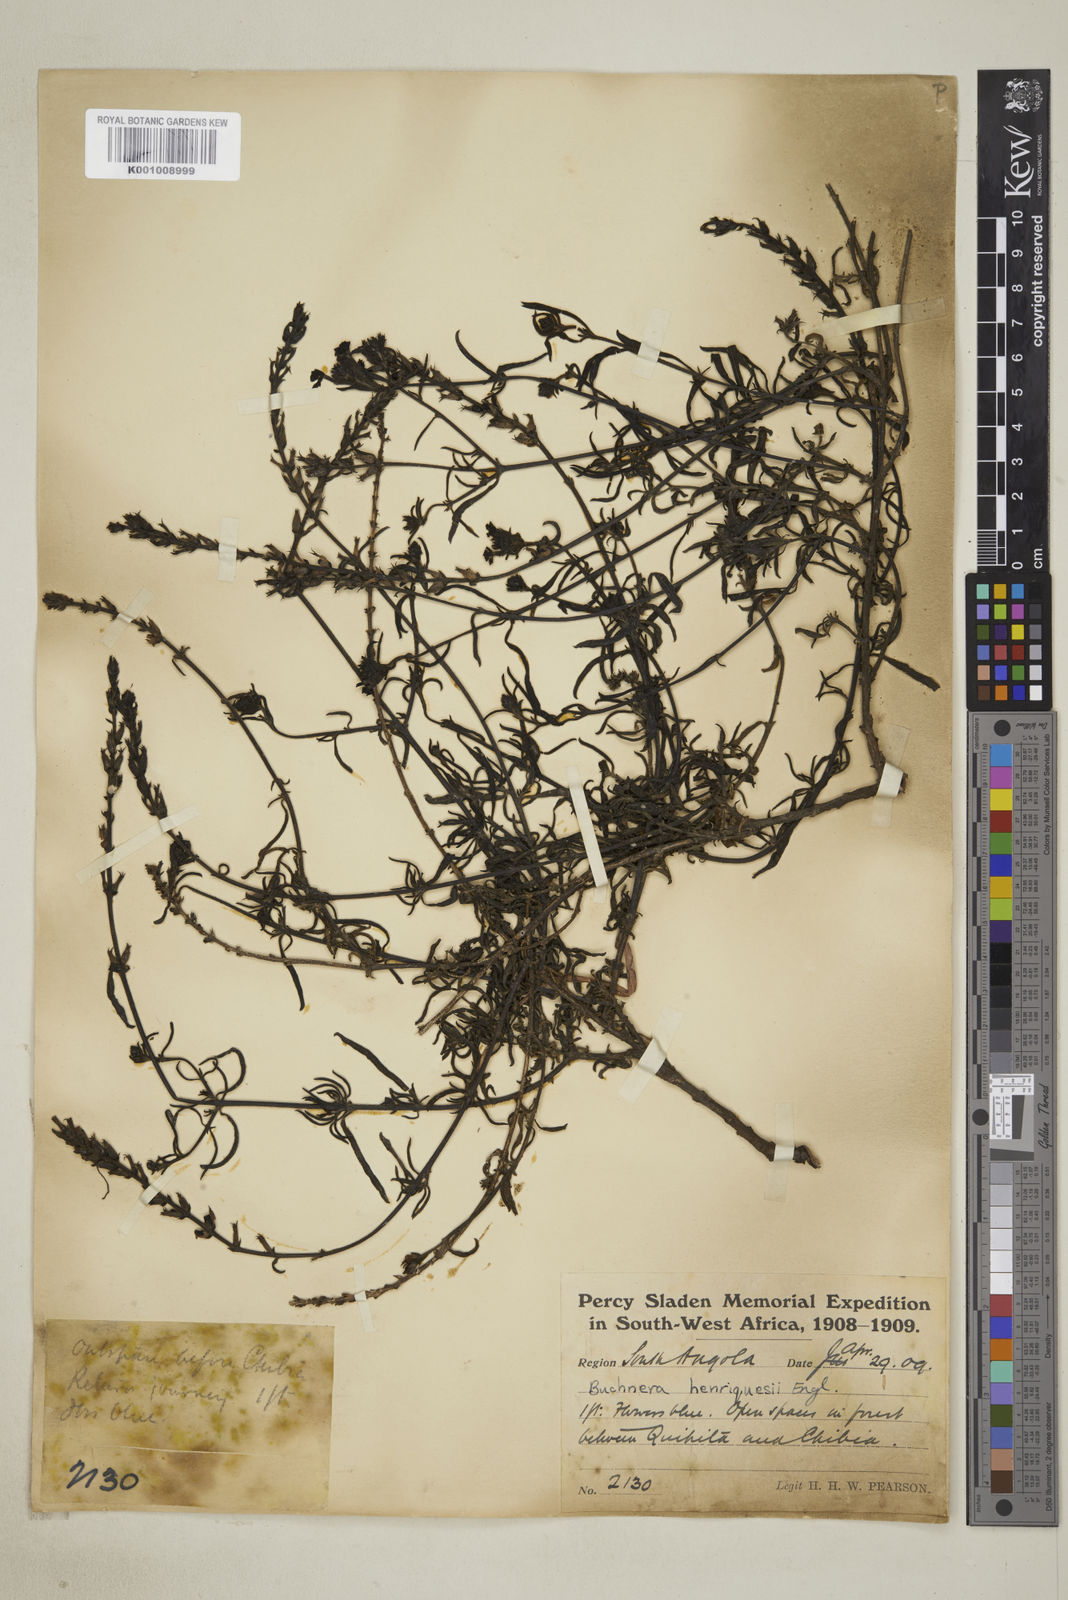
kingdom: Plantae
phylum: Tracheophyta
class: Magnoliopsida
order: Lamiales
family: Orobanchaceae
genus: Buchnera
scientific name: Buchnera henriquesii
